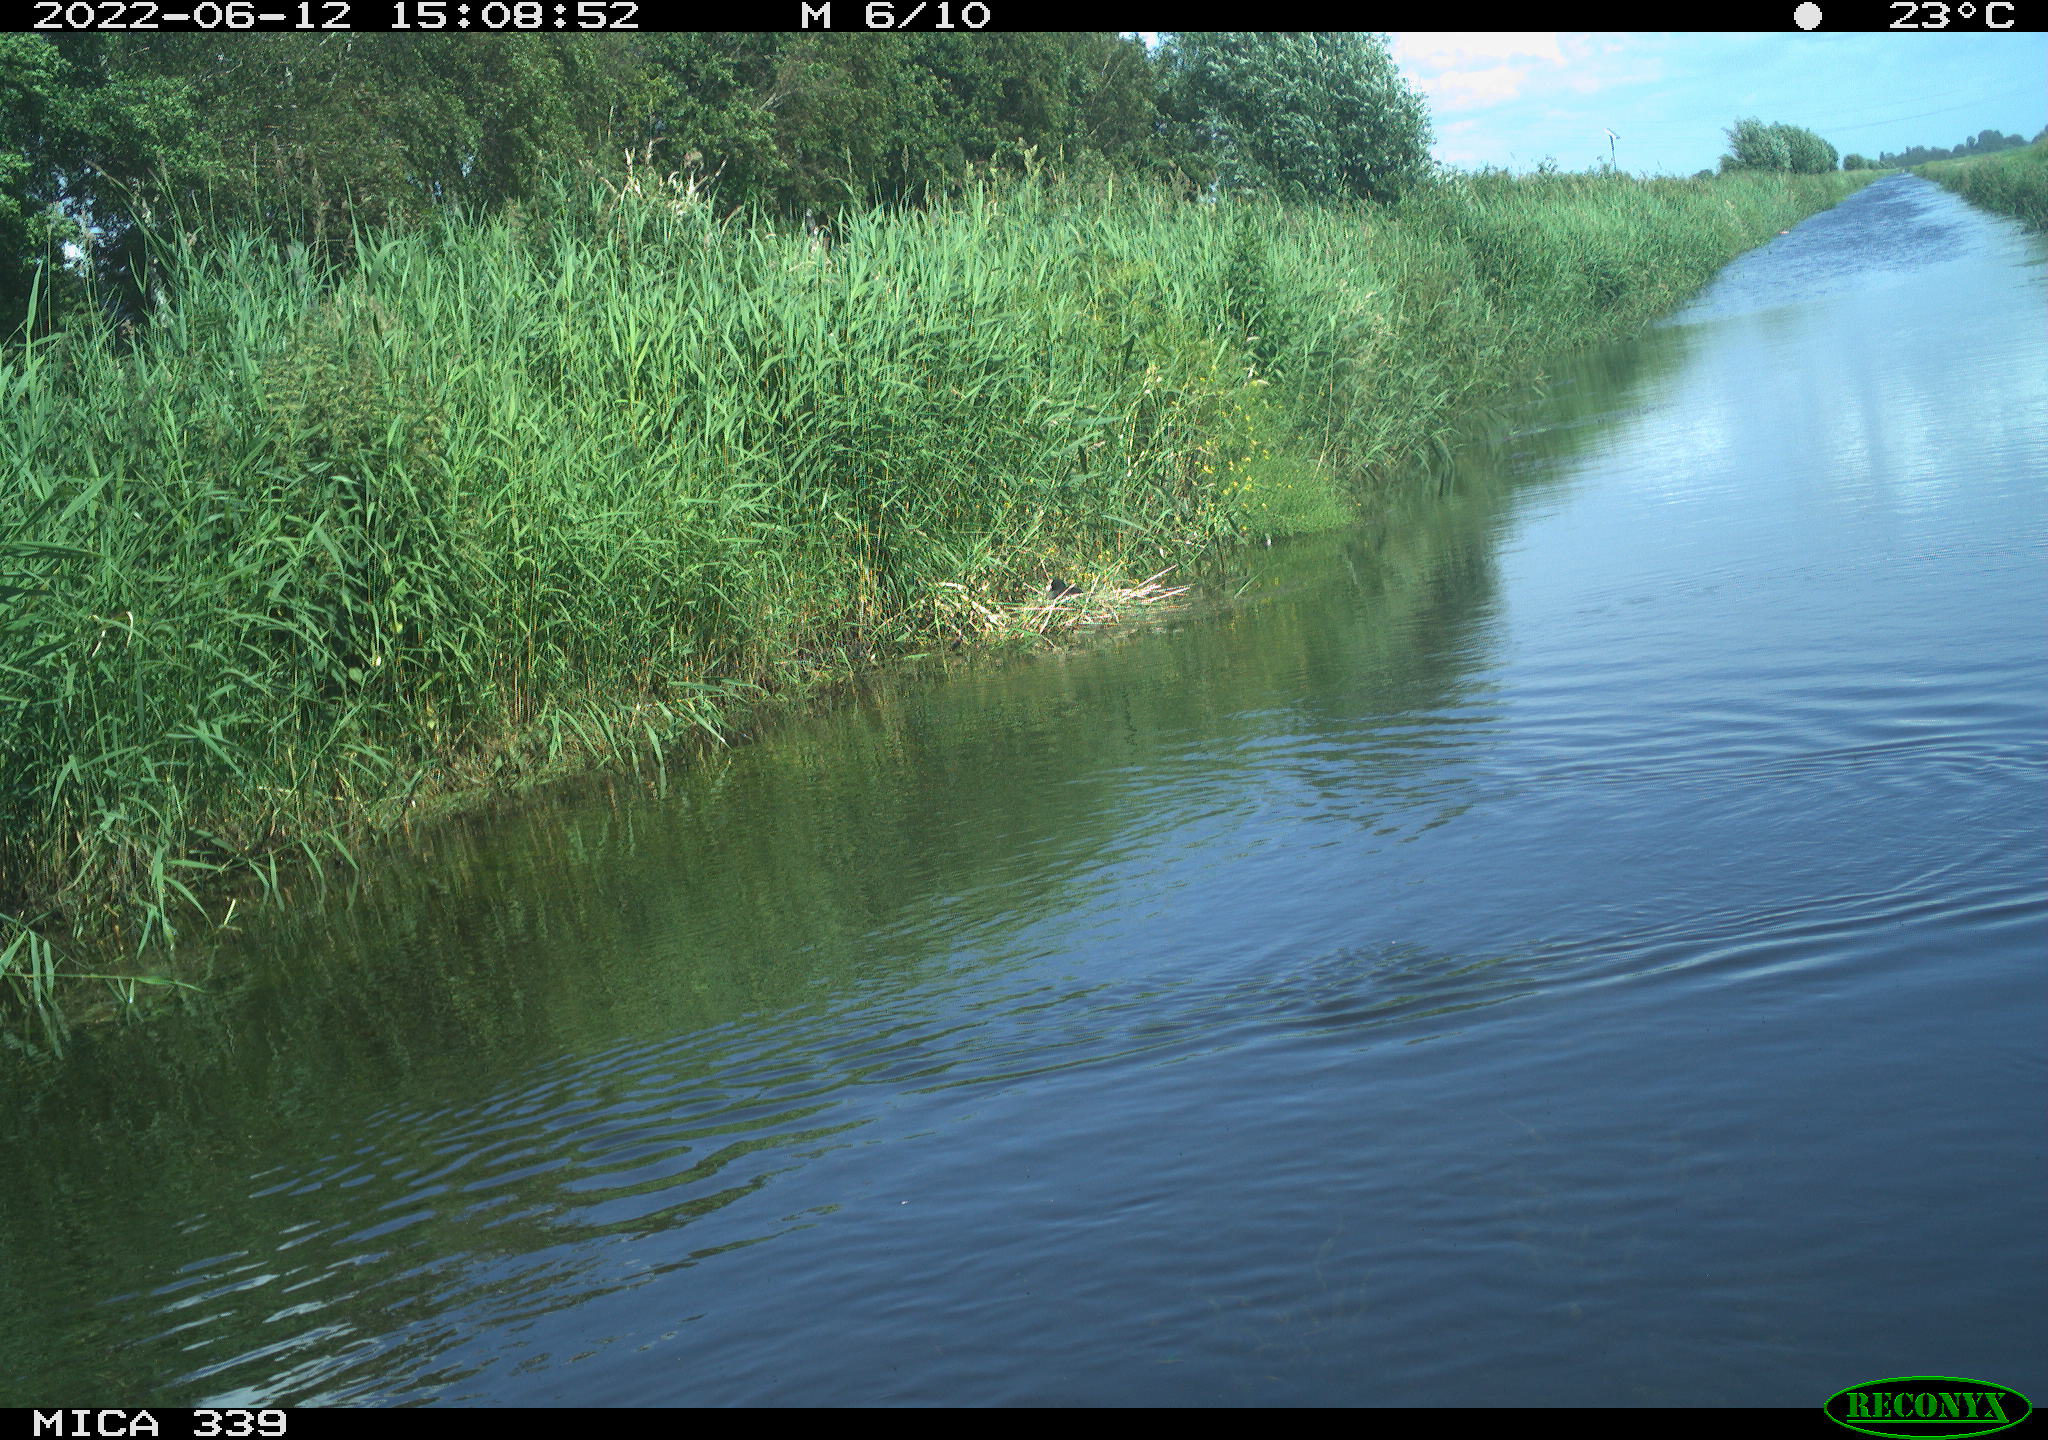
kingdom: Animalia
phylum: Chordata
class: Aves
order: Gruiformes
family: Rallidae
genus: Fulica
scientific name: Fulica atra
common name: Eurasian coot
